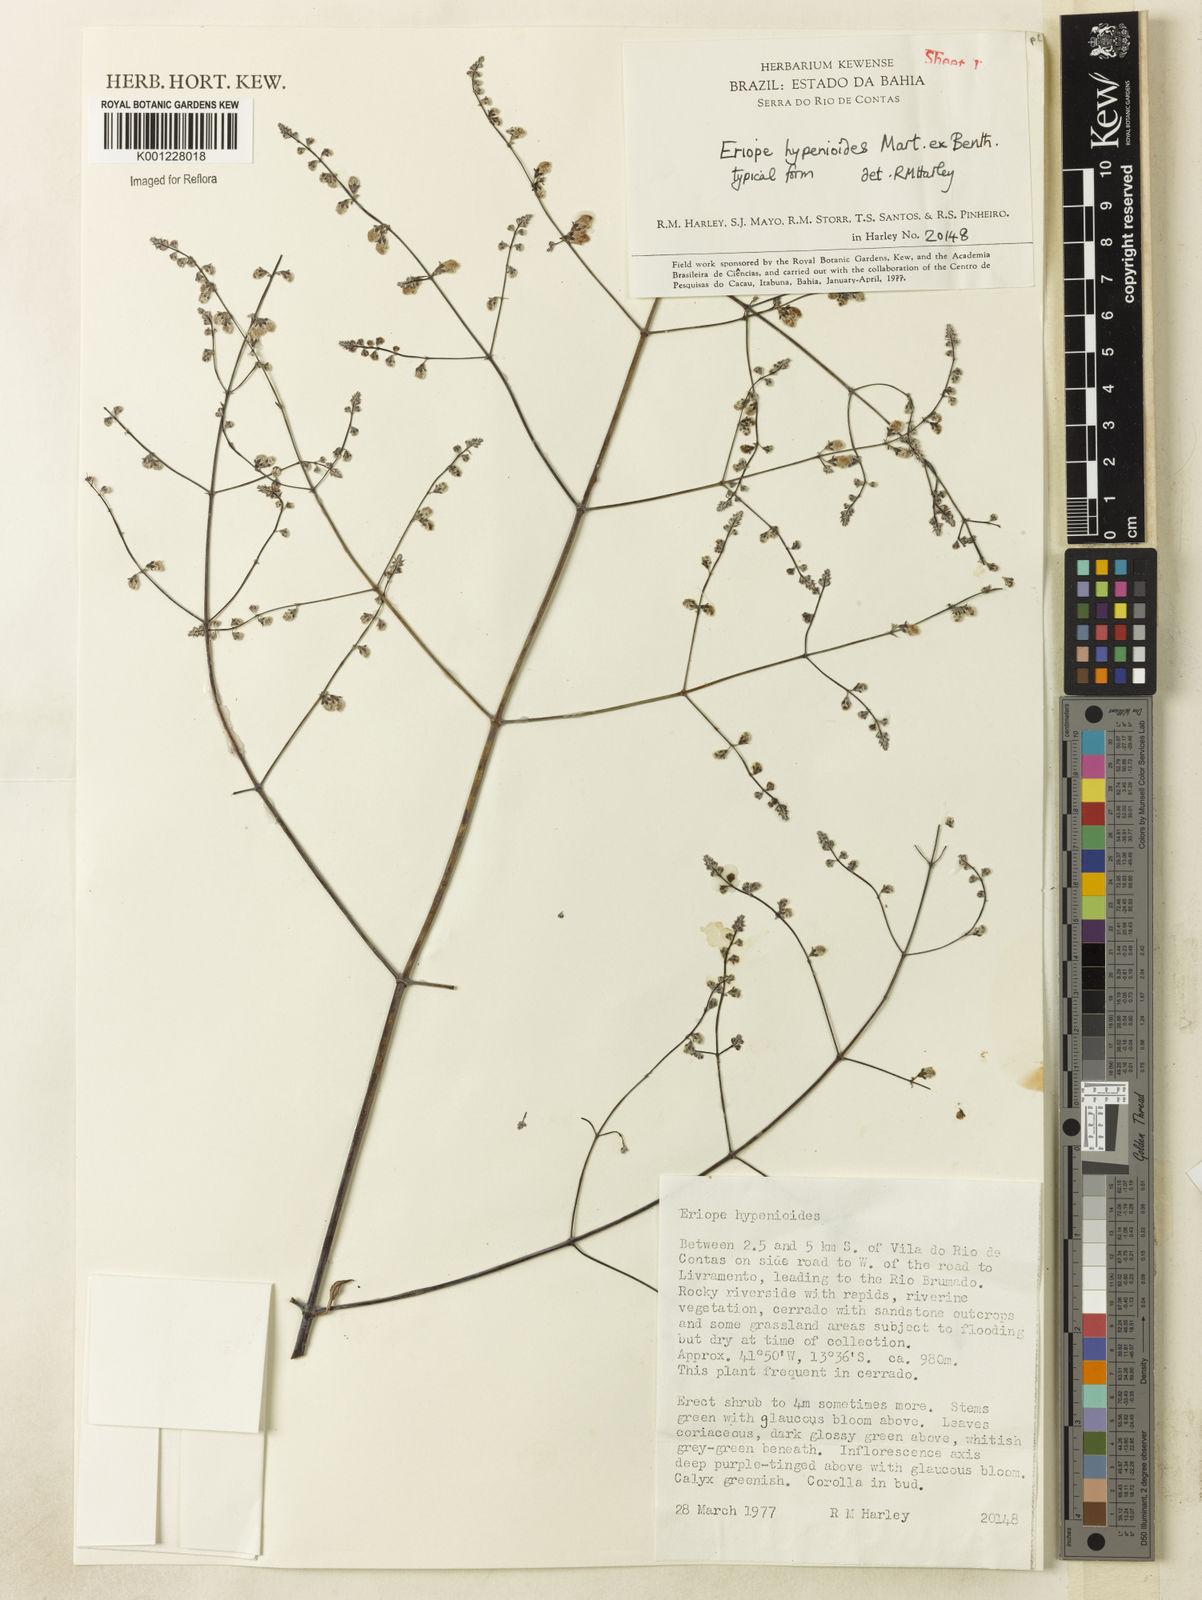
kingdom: Plantae
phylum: Tracheophyta
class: Magnoliopsida
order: Lamiales
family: Lamiaceae
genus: Eriope
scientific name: Eriope hypenioides
